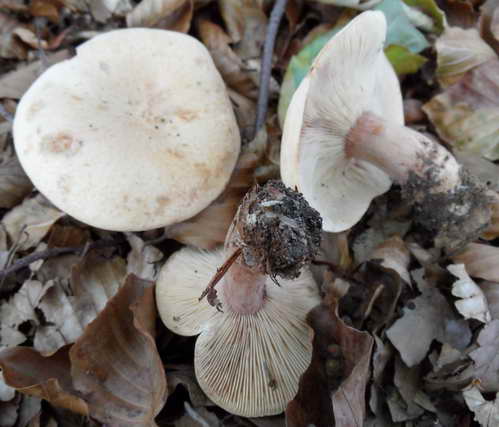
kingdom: Fungi
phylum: Basidiomycota
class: Agaricomycetes
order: Russulales
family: Russulaceae
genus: Lactarius
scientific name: Lactarius rubrocinctus
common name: halsbånd-mælkehat
